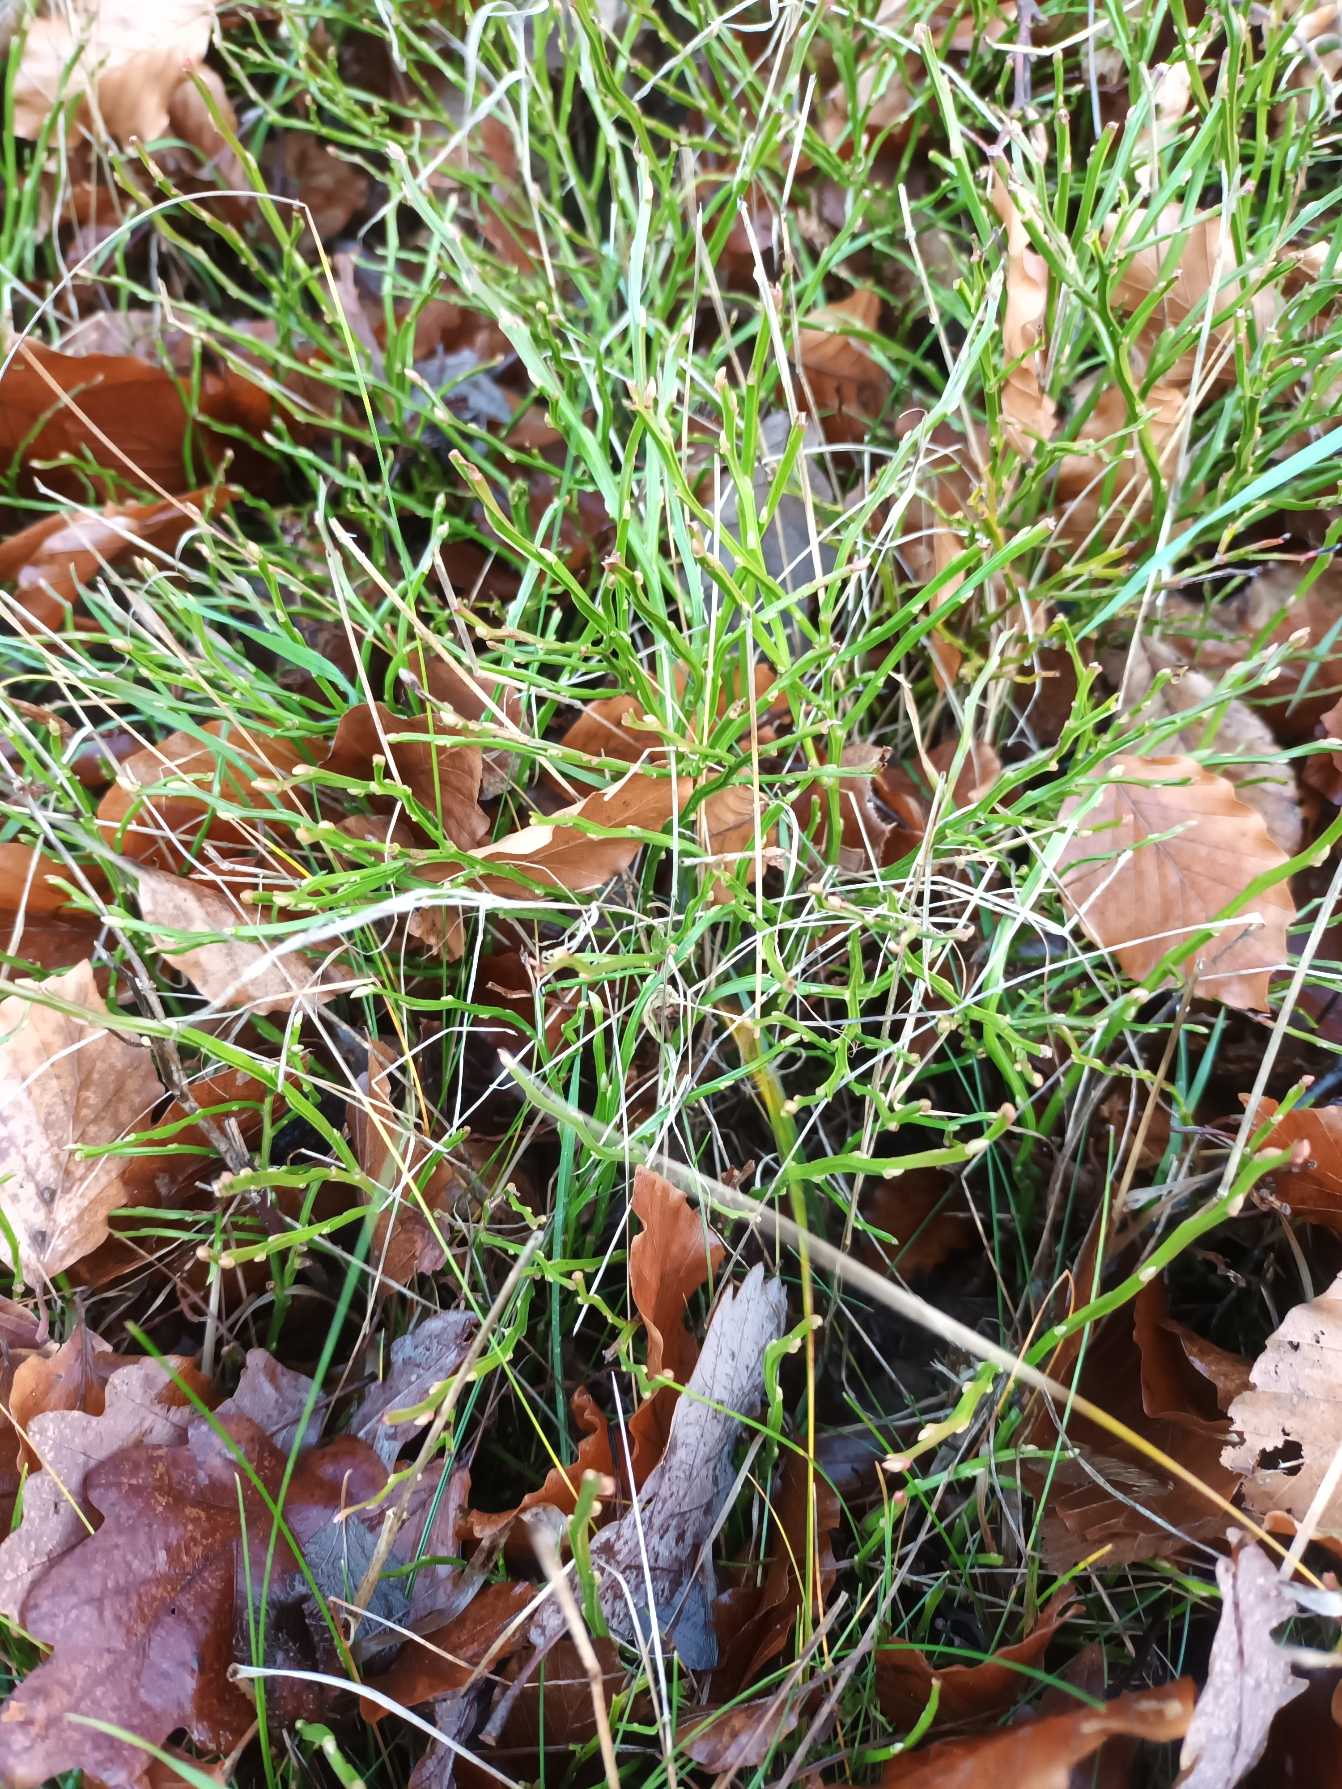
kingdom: Plantae
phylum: Tracheophyta
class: Magnoliopsida
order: Ericales
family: Ericaceae
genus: Vaccinium
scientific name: Vaccinium myrtillus
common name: Blåbær
